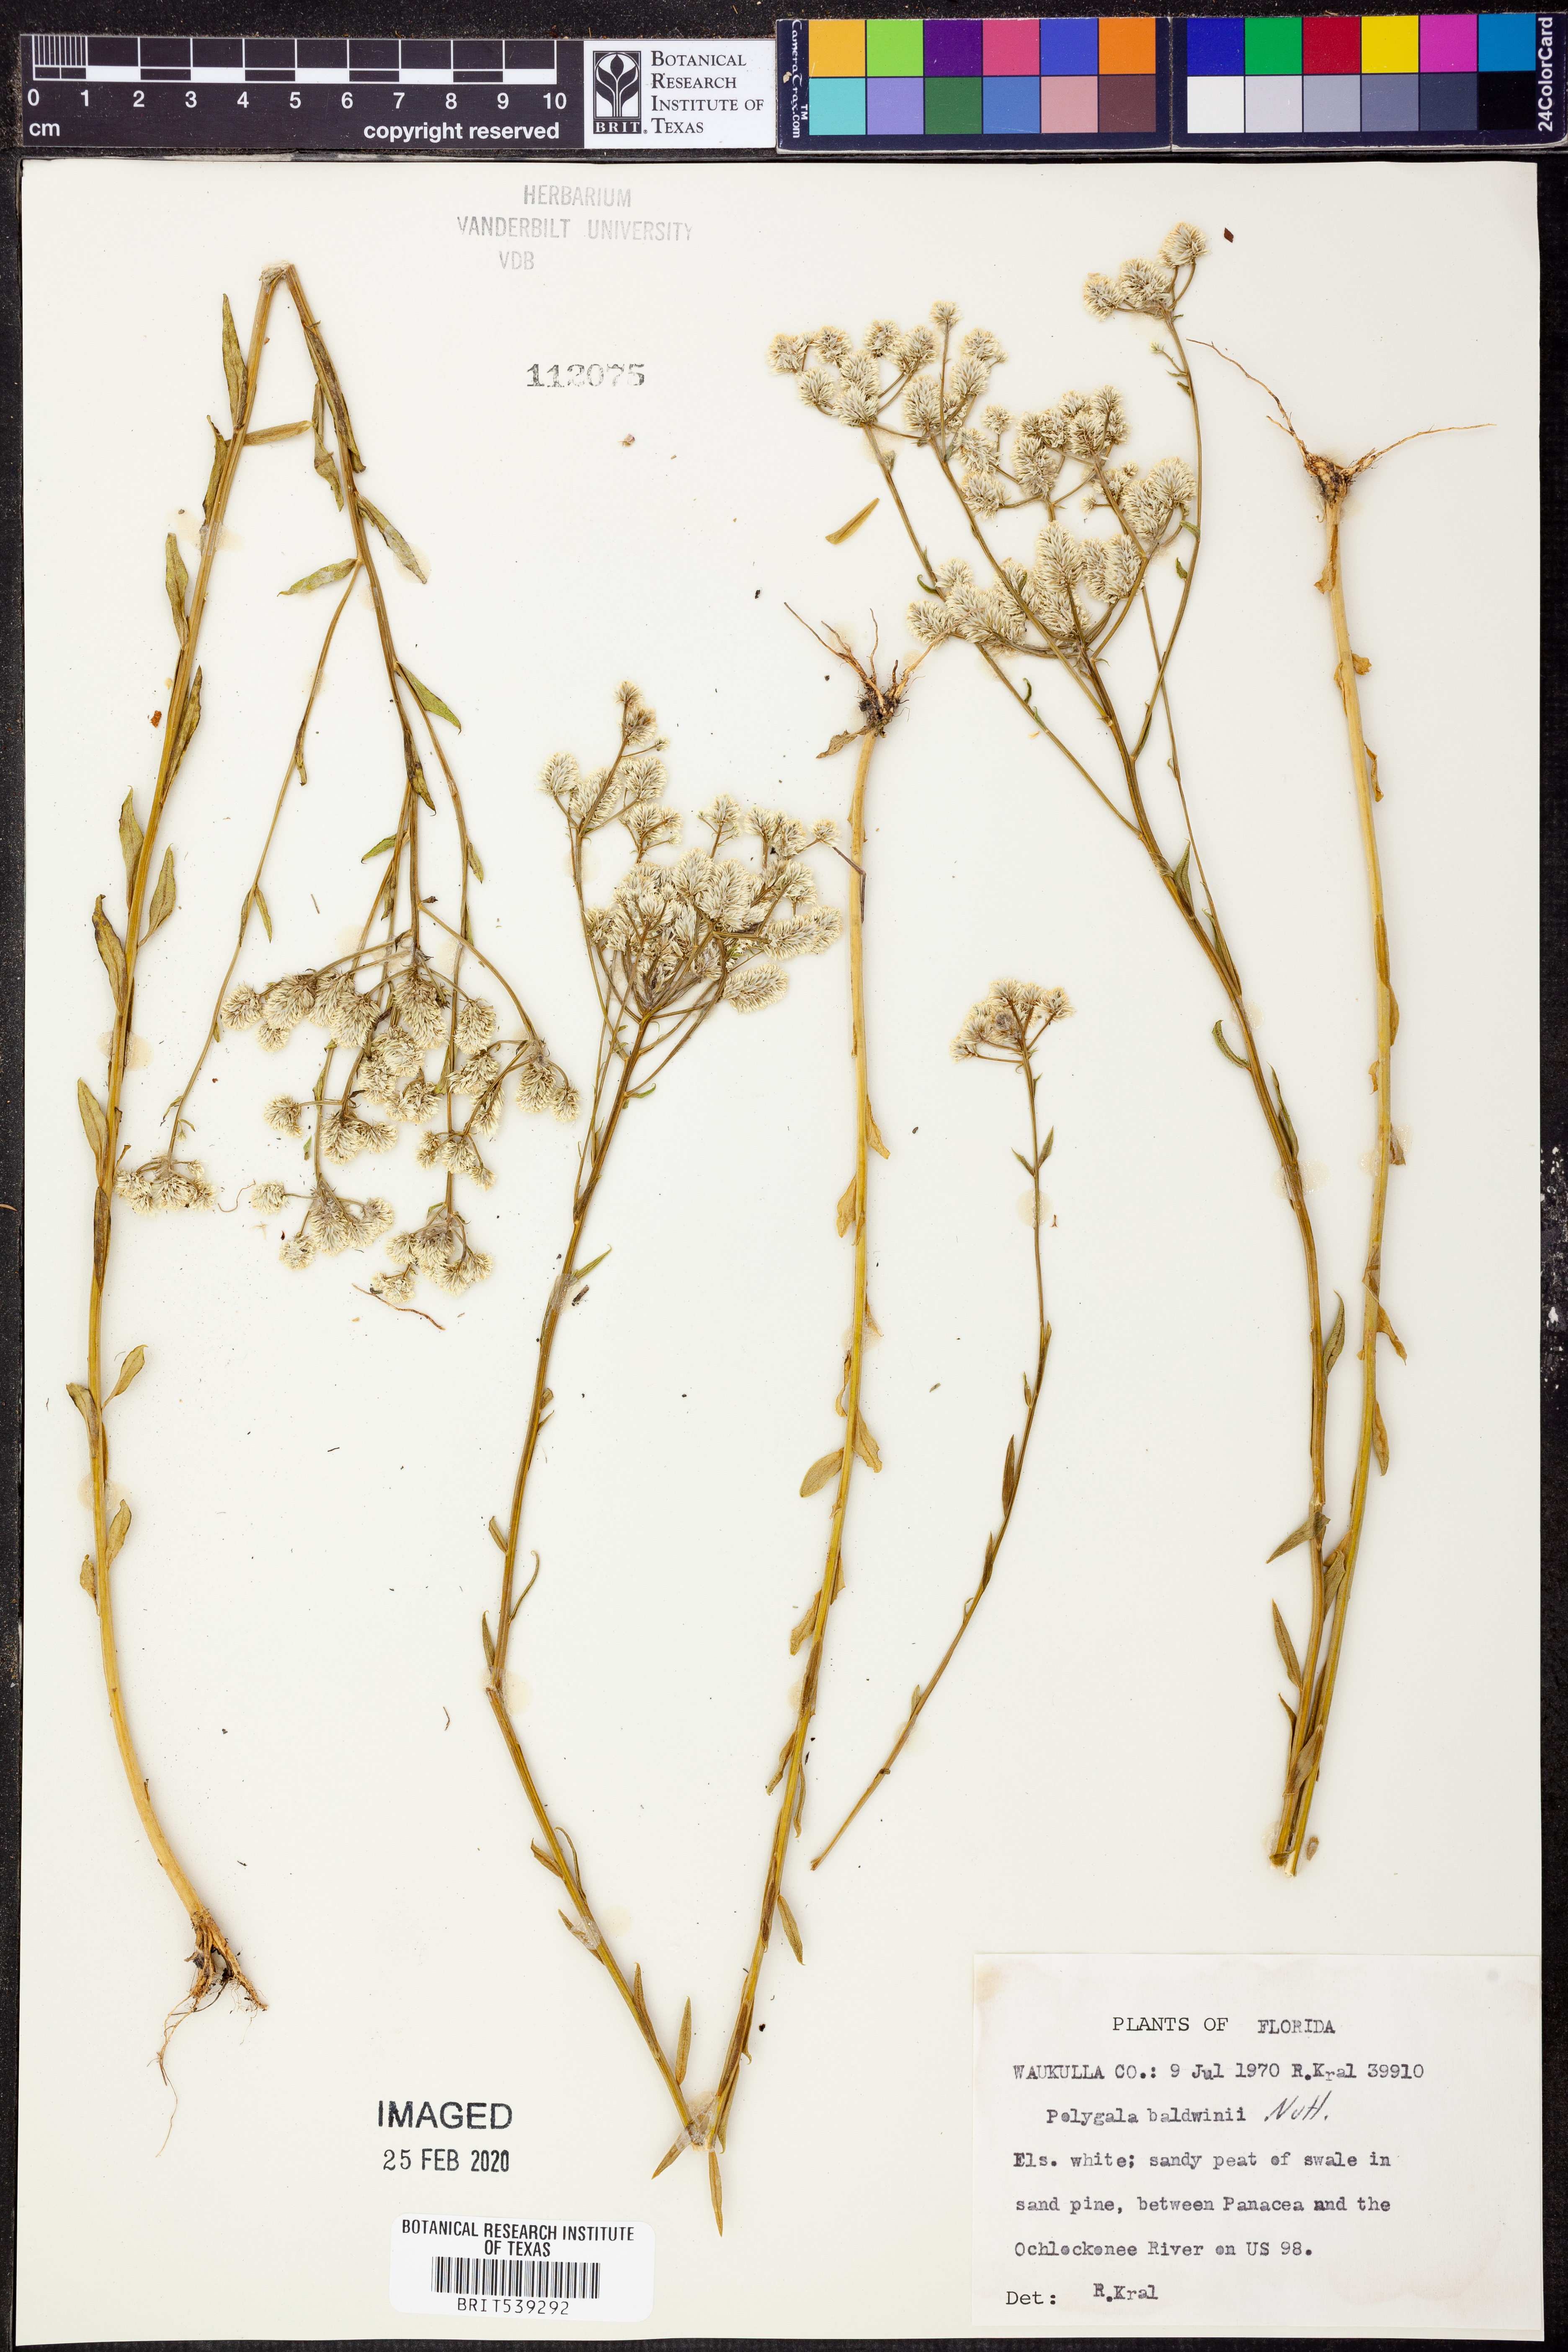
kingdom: Plantae
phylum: Tracheophyta
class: Magnoliopsida
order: Fabales
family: Polygalaceae
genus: Polygala
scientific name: Polygala baldwinii
